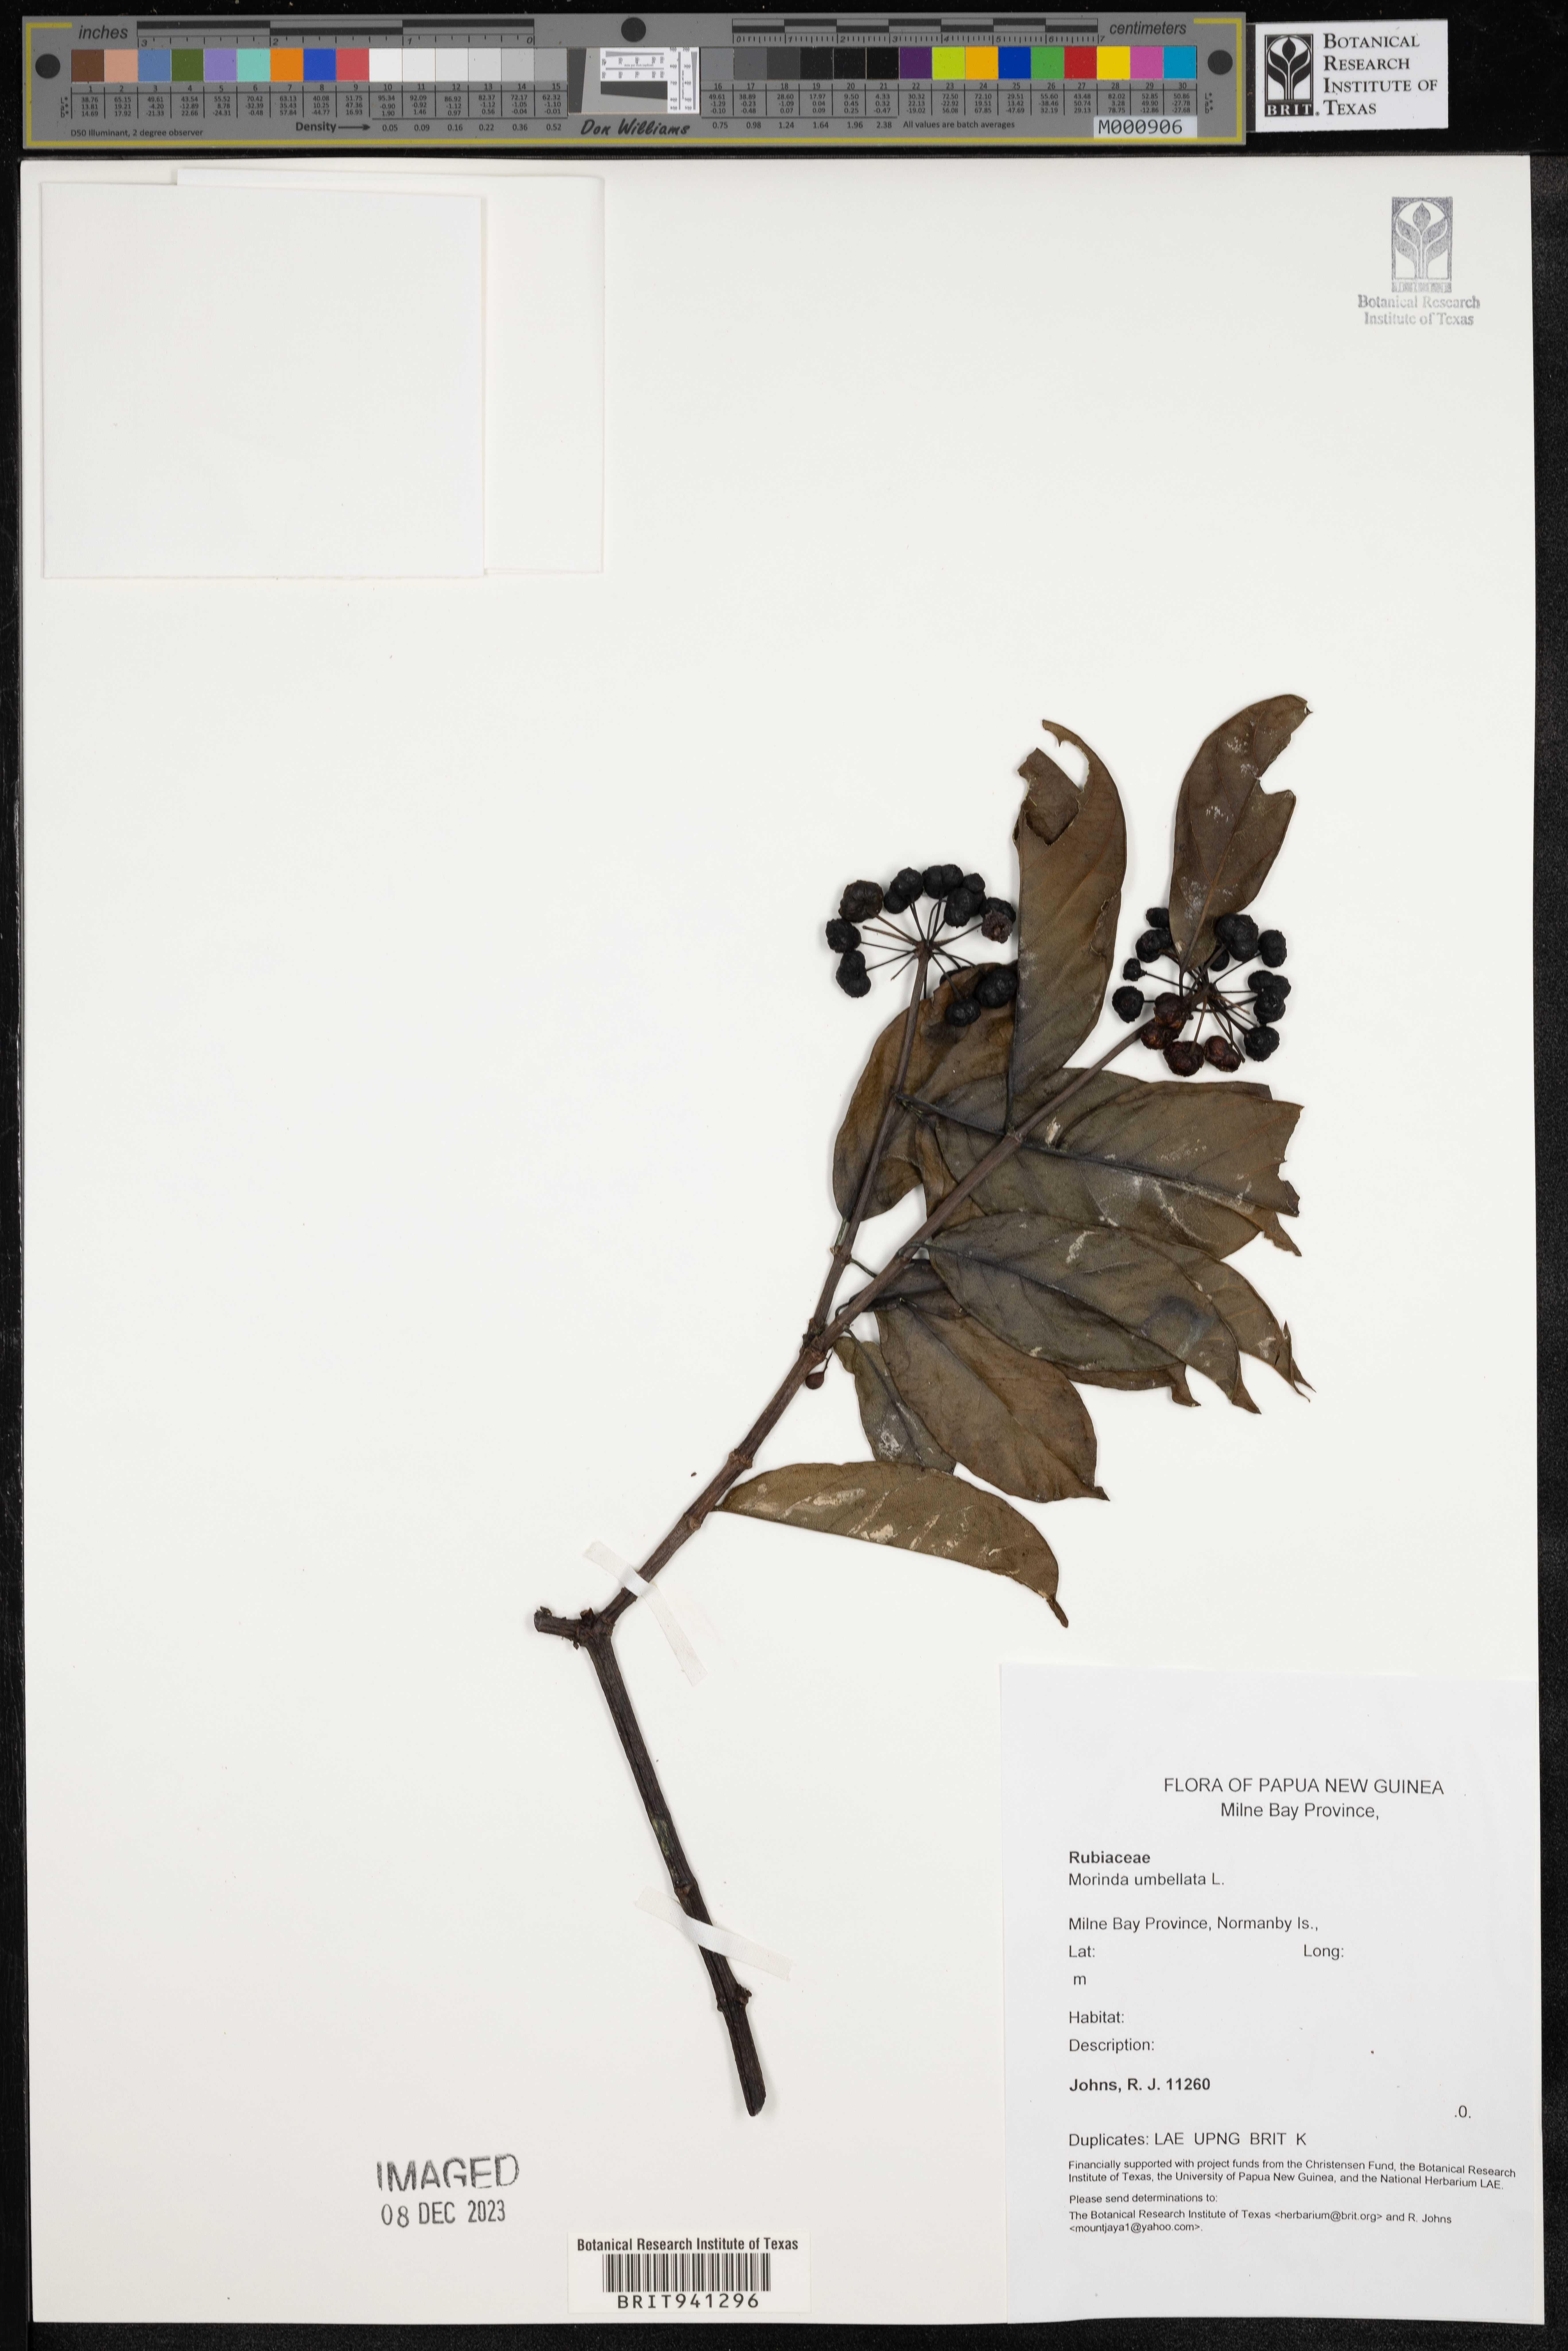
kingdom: Plantae
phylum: Tracheophyta
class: Magnoliopsida
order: Gentianales
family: Rubiaceae
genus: Morinda
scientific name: Morinda
